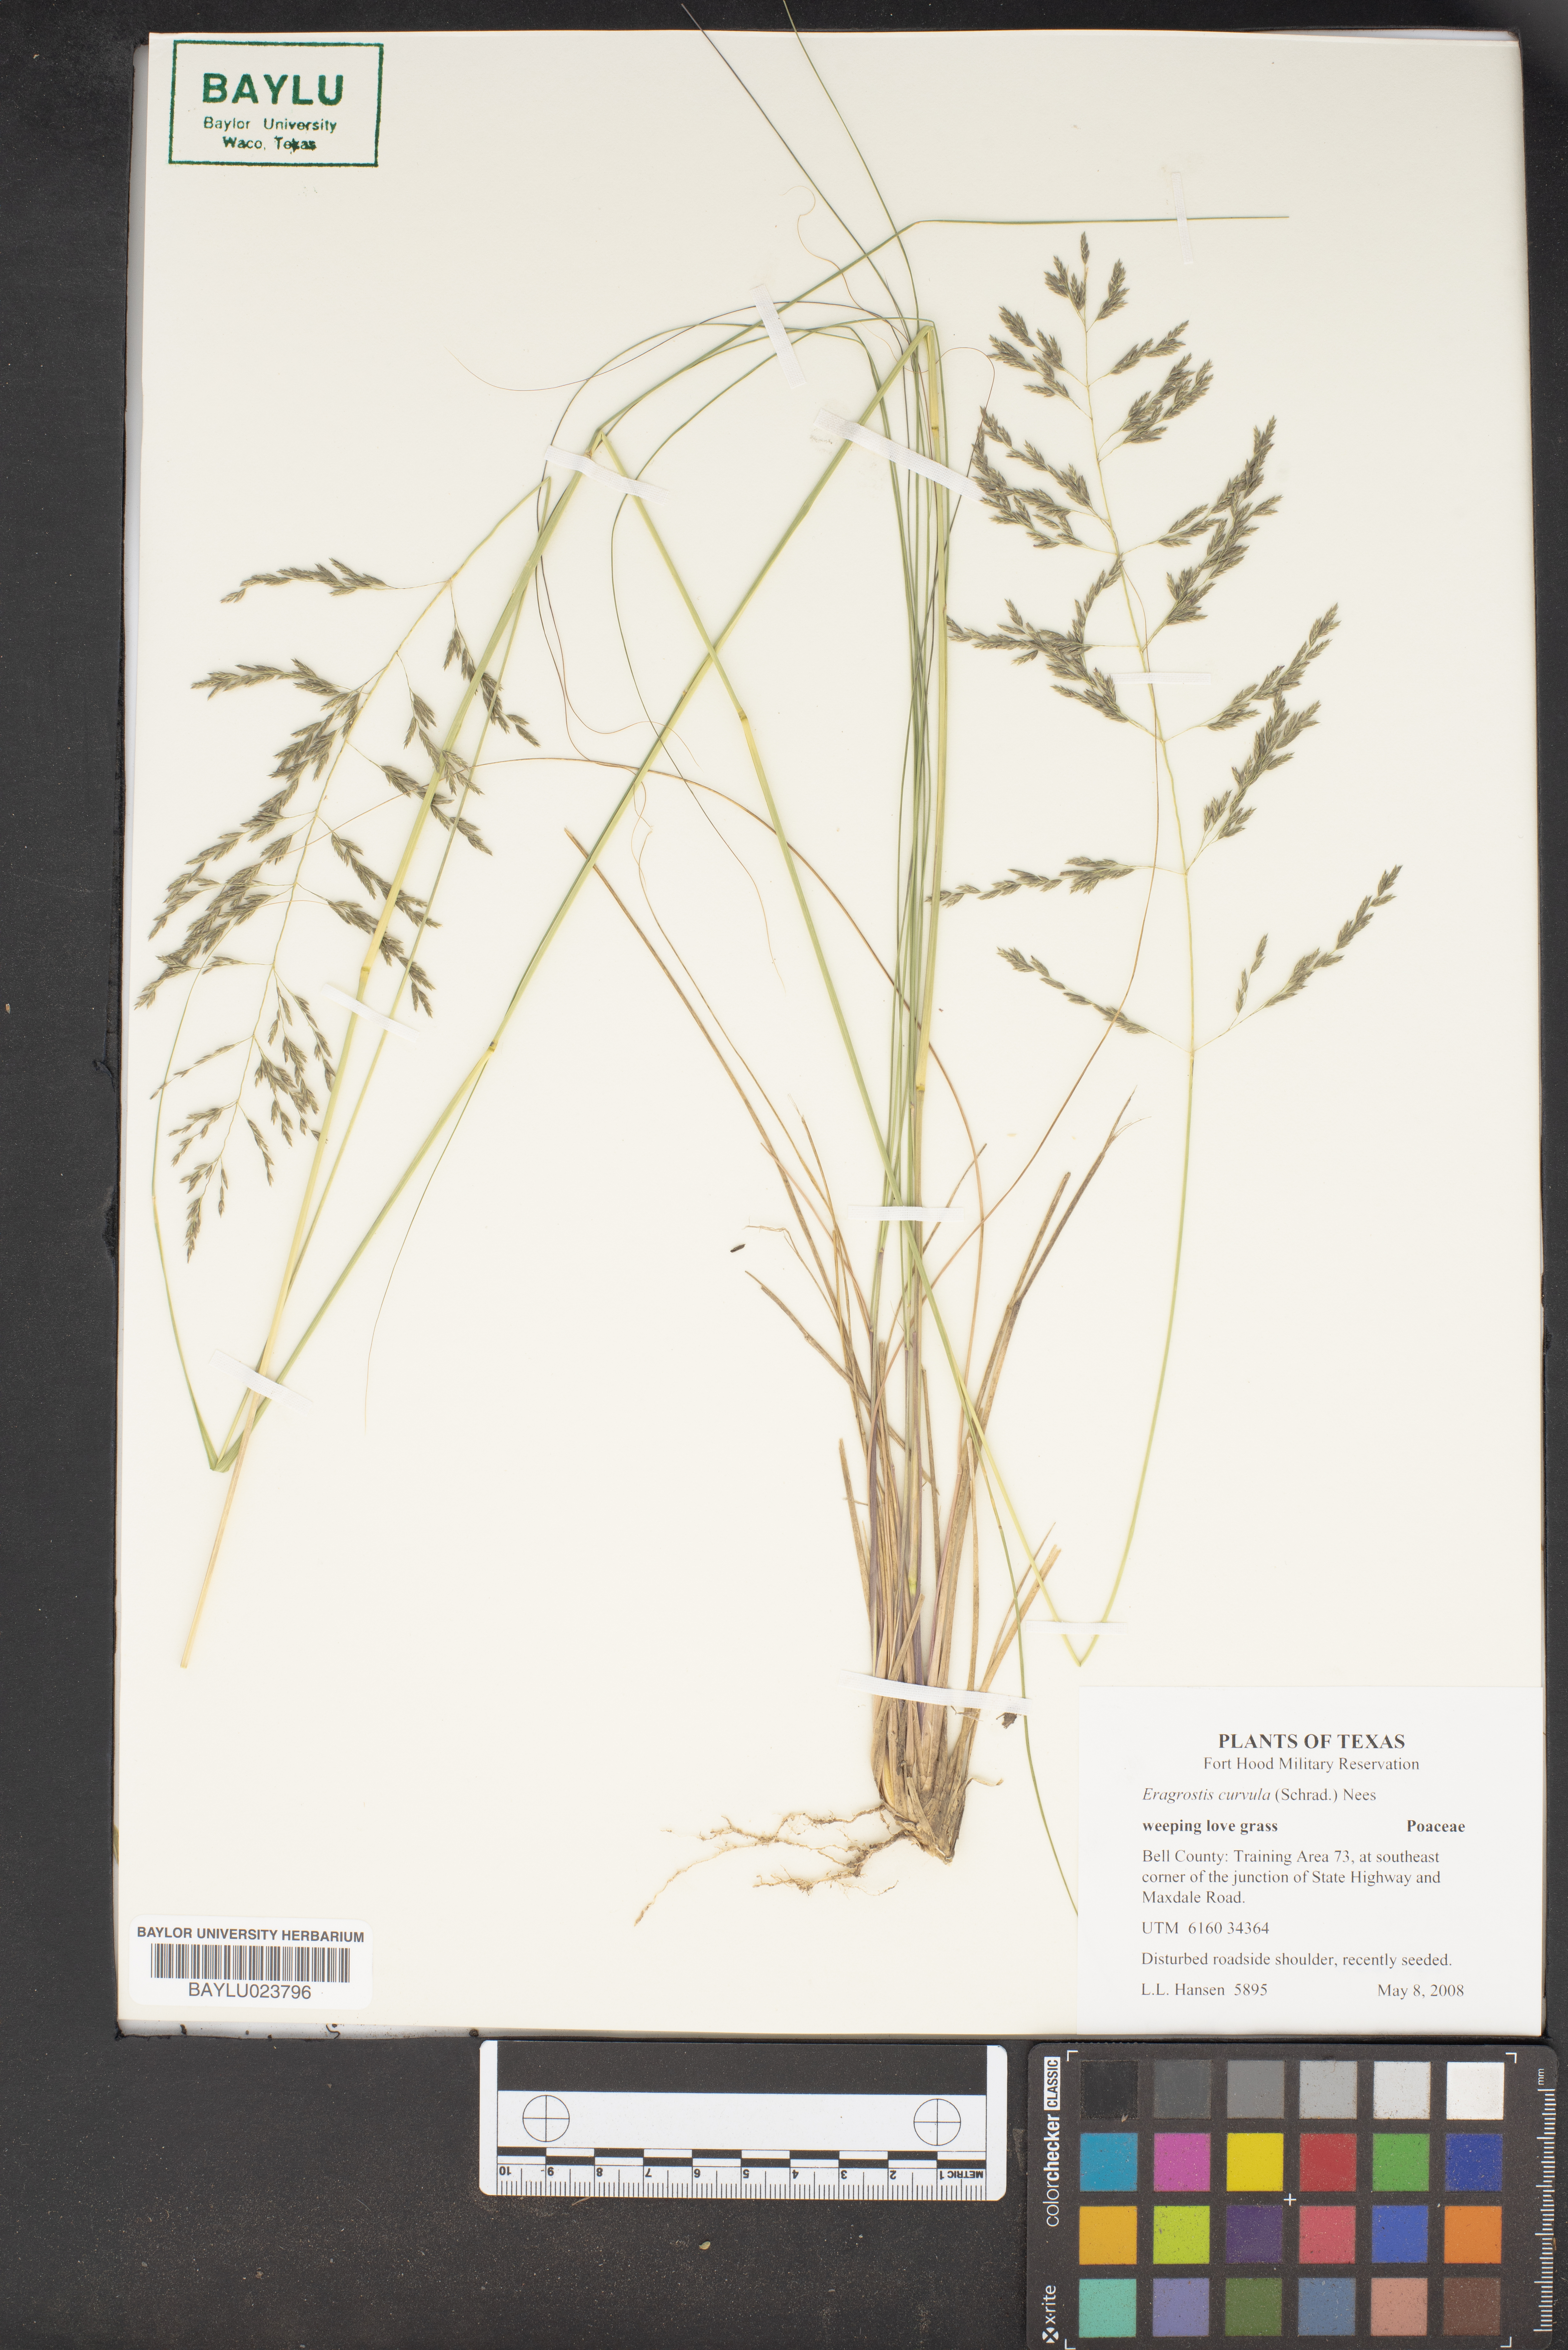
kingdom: Plantae
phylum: Tracheophyta
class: Liliopsida
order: Poales
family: Poaceae
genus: Eragrostis
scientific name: Eragrostis curvula
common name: African love-grass
